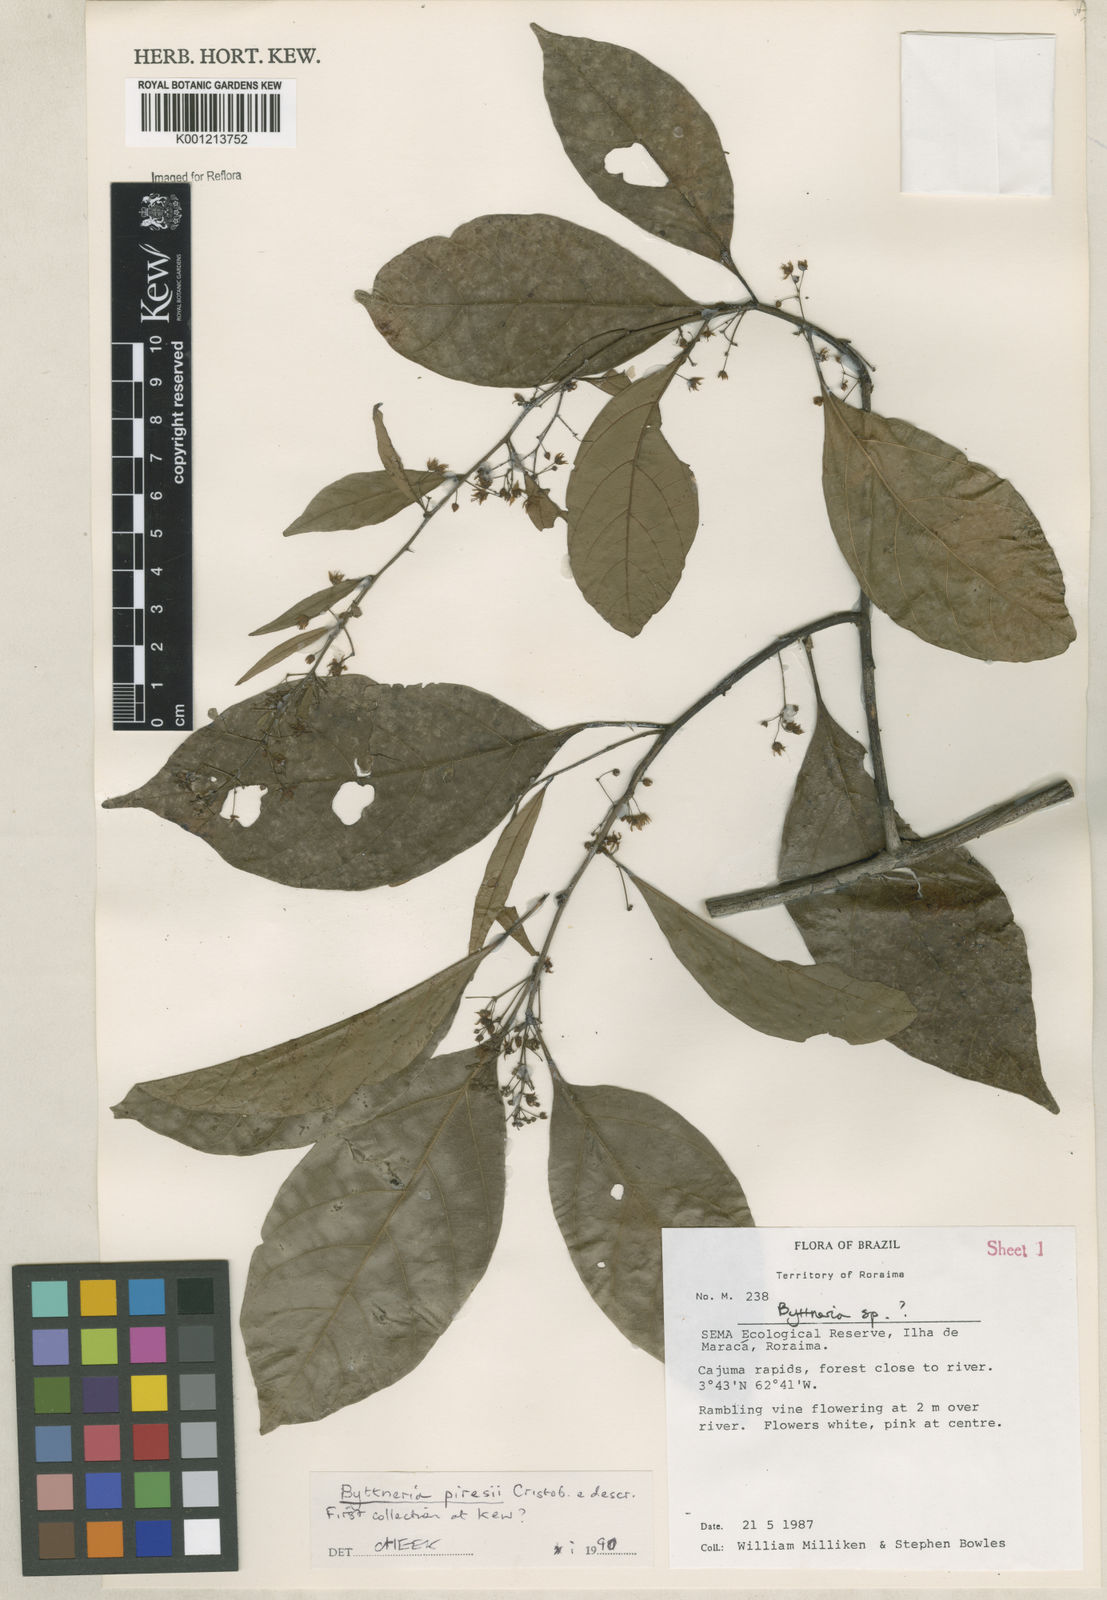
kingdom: Plantae
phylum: Tracheophyta
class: Magnoliopsida
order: Malvales
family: Malvaceae
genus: Byttneria
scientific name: Byttneria
